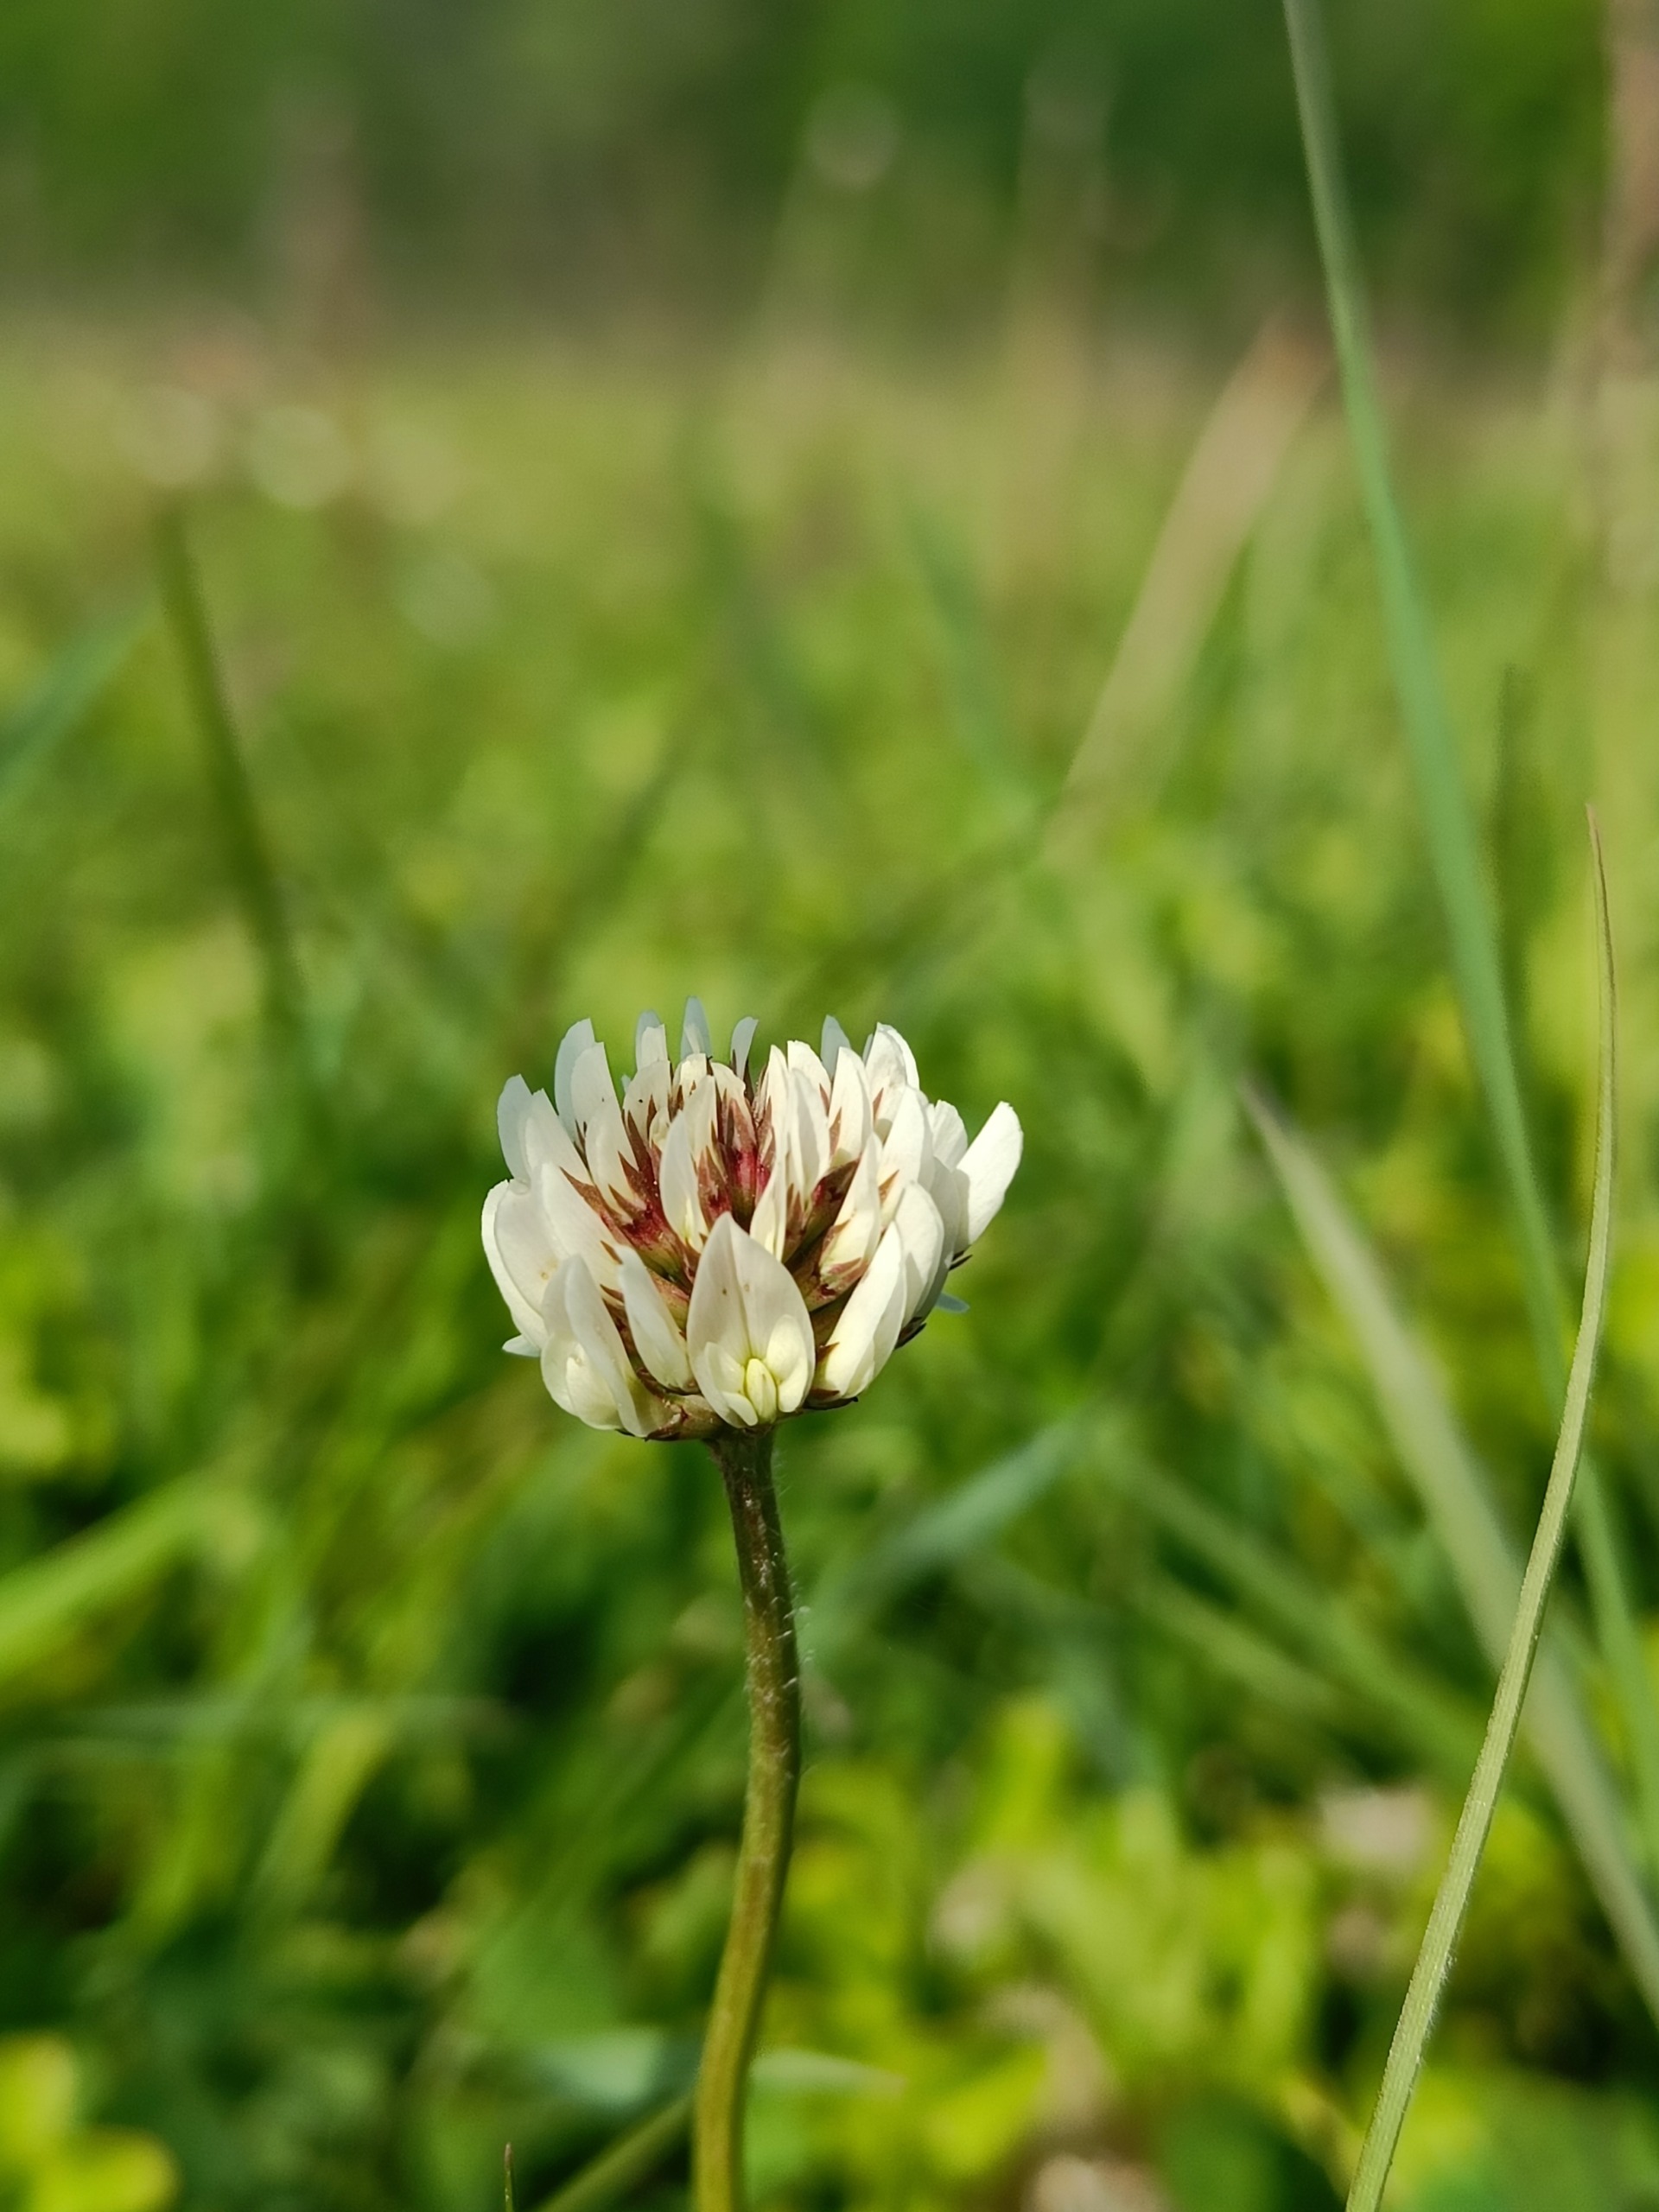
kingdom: Plantae
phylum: Tracheophyta
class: Magnoliopsida
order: Fabales
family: Fabaceae
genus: Trifolium
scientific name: Trifolium repens
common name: Hvid-kløver
